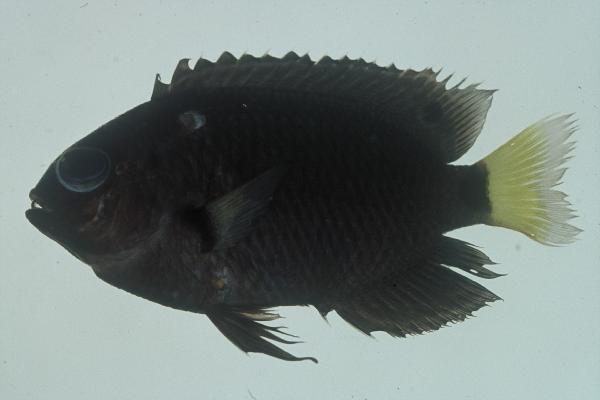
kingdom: Animalia
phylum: Chordata
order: Perciformes
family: Pomacentridae
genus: Pomacentrus
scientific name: Pomacentrus trichrourus
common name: Paletail damsel
